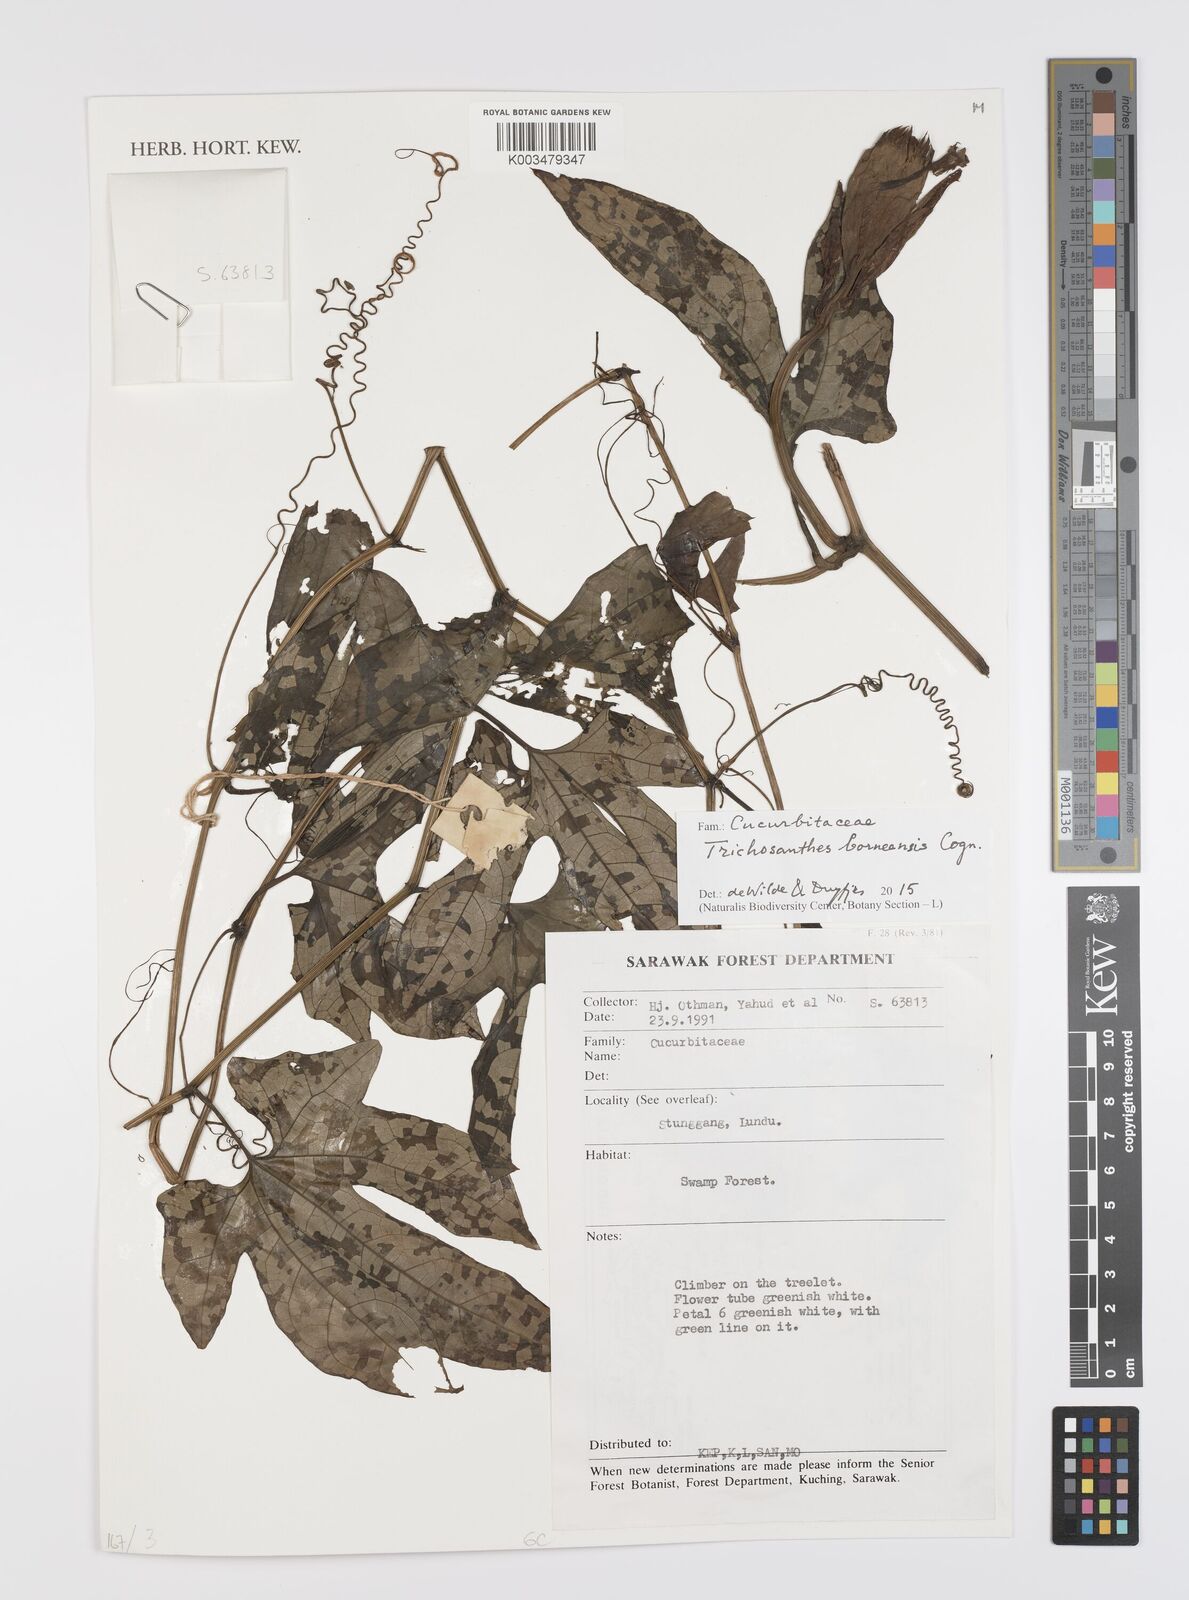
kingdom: Plantae
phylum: Tracheophyta
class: Magnoliopsida
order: Cucurbitales
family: Cucurbitaceae
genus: Trichosanthes
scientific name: Trichosanthes borneensis
